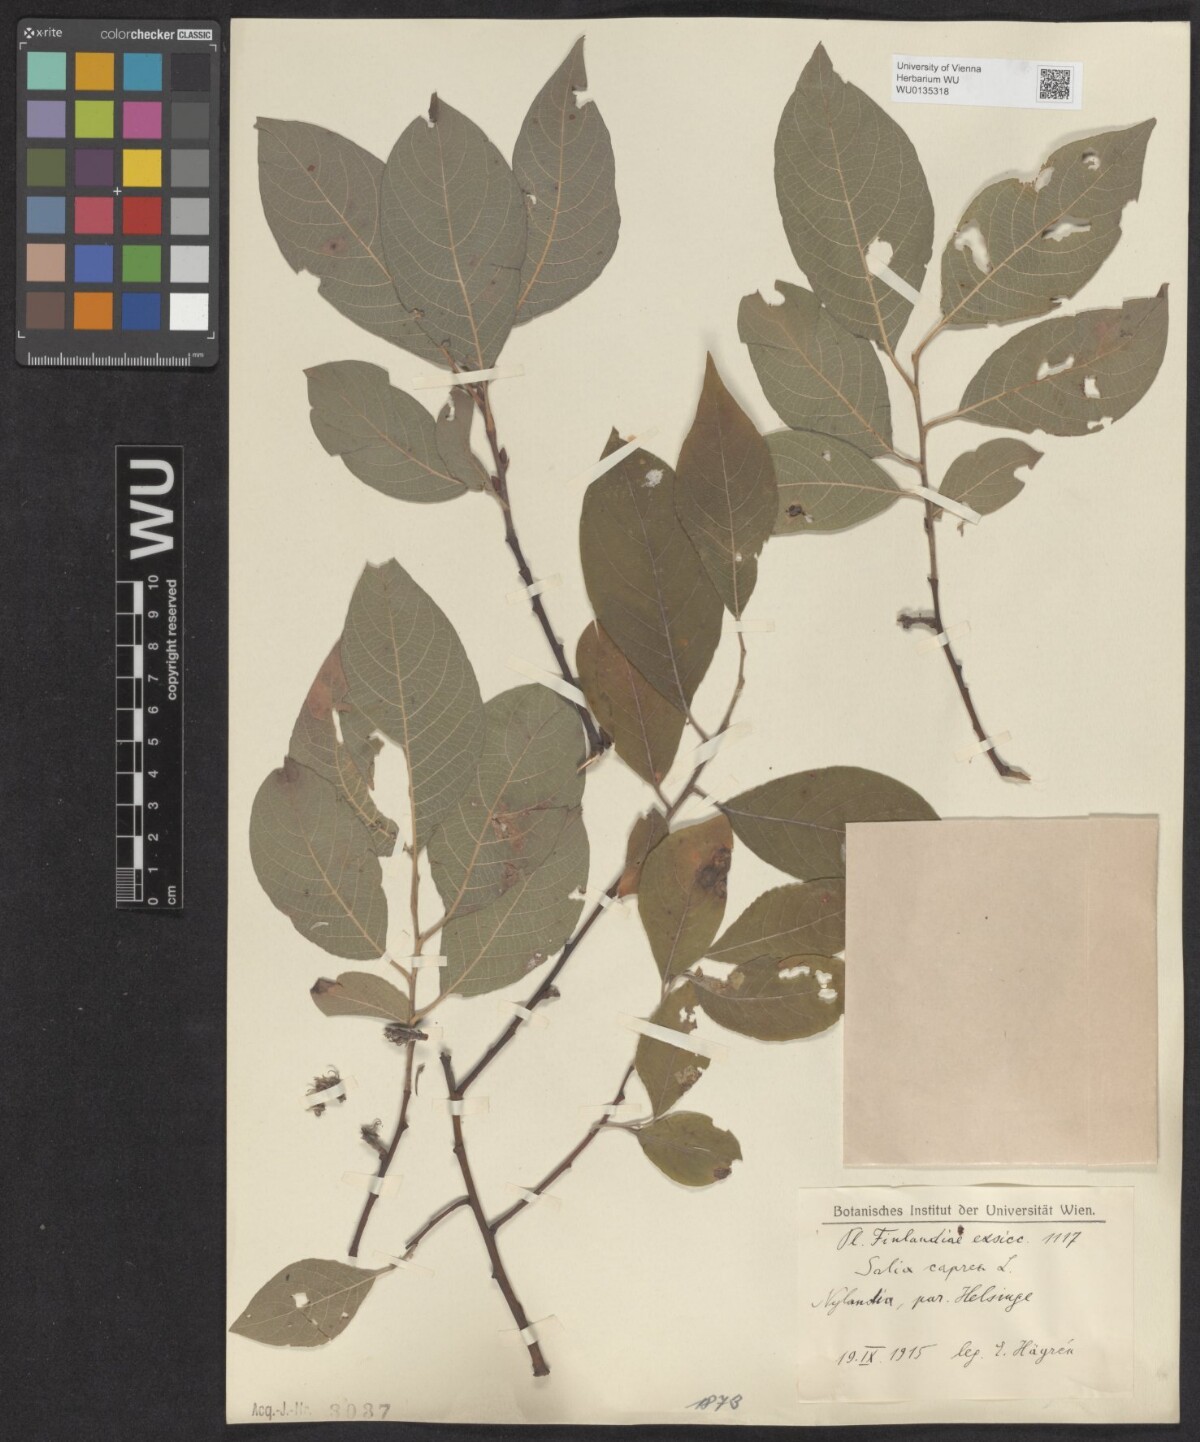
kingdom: Plantae
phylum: Tracheophyta
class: Magnoliopsida
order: Malpighiales
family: Salicaceae
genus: Salix
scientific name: Salix caprea
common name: Goat willow
